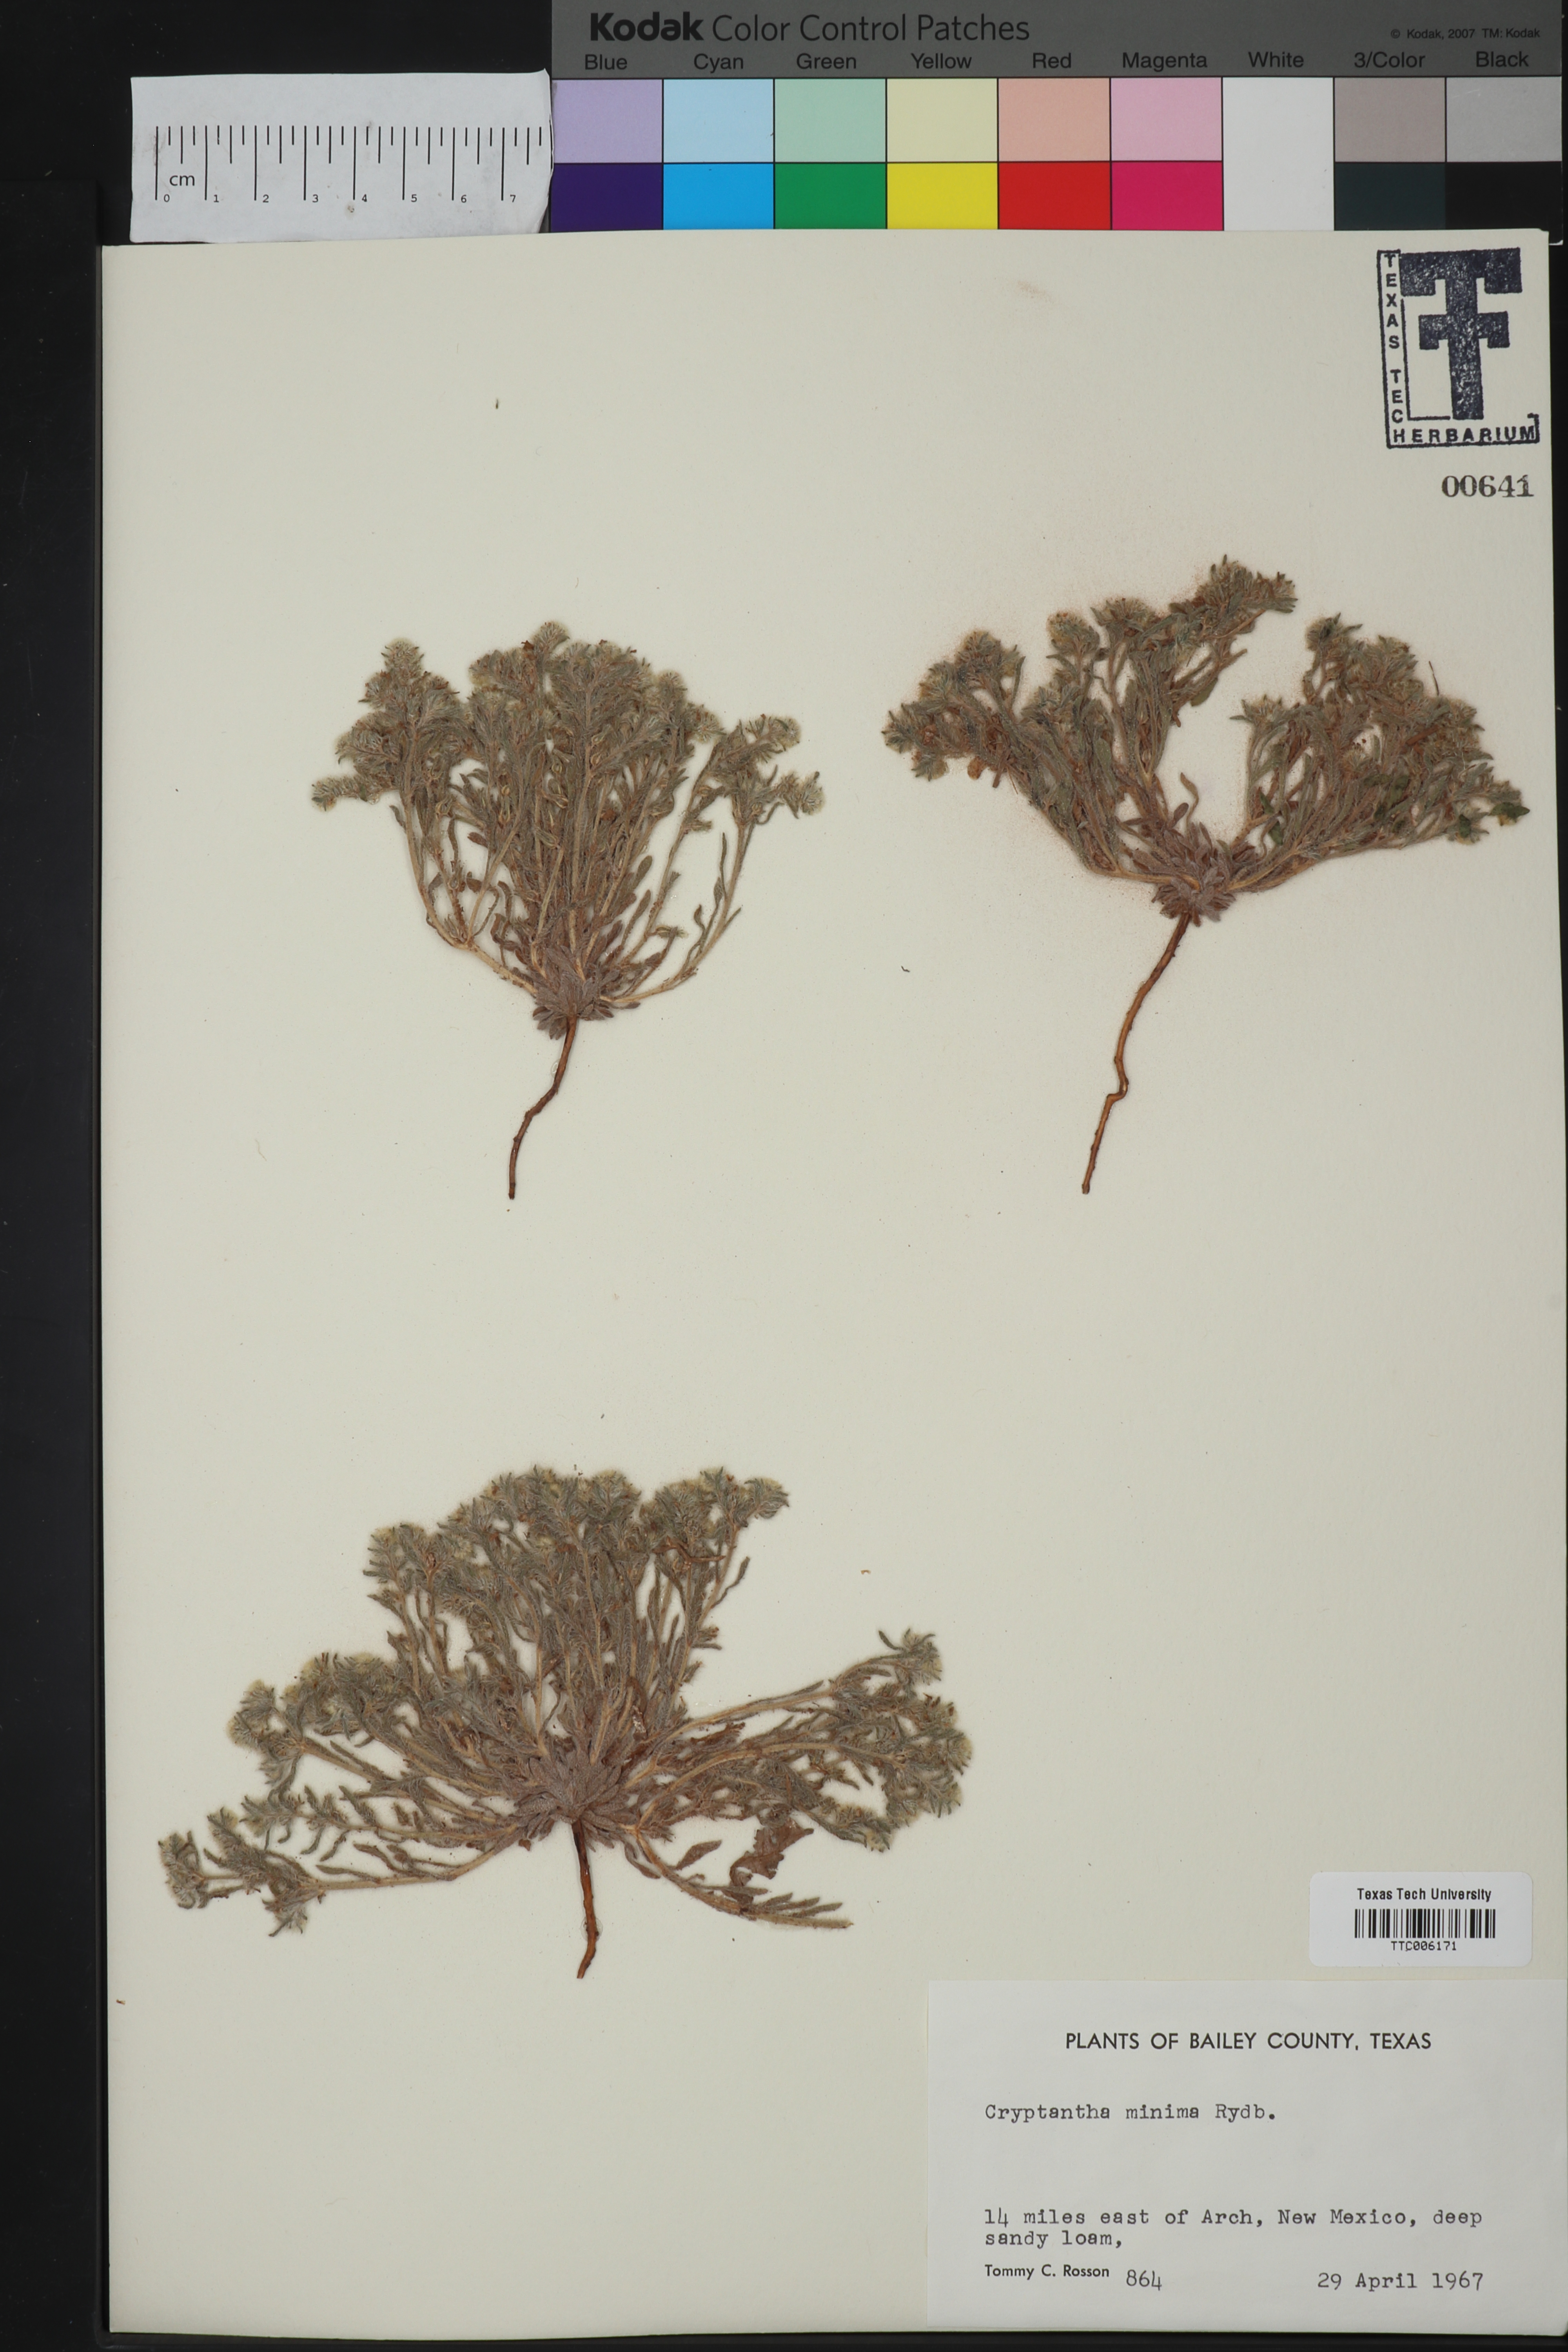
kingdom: Plantae
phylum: Tracheophyta
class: Magnoliopsida
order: Boraginales
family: Boraginaceae
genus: Cryptantha
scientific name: Cryptantha minima
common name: Little cat's-eye
